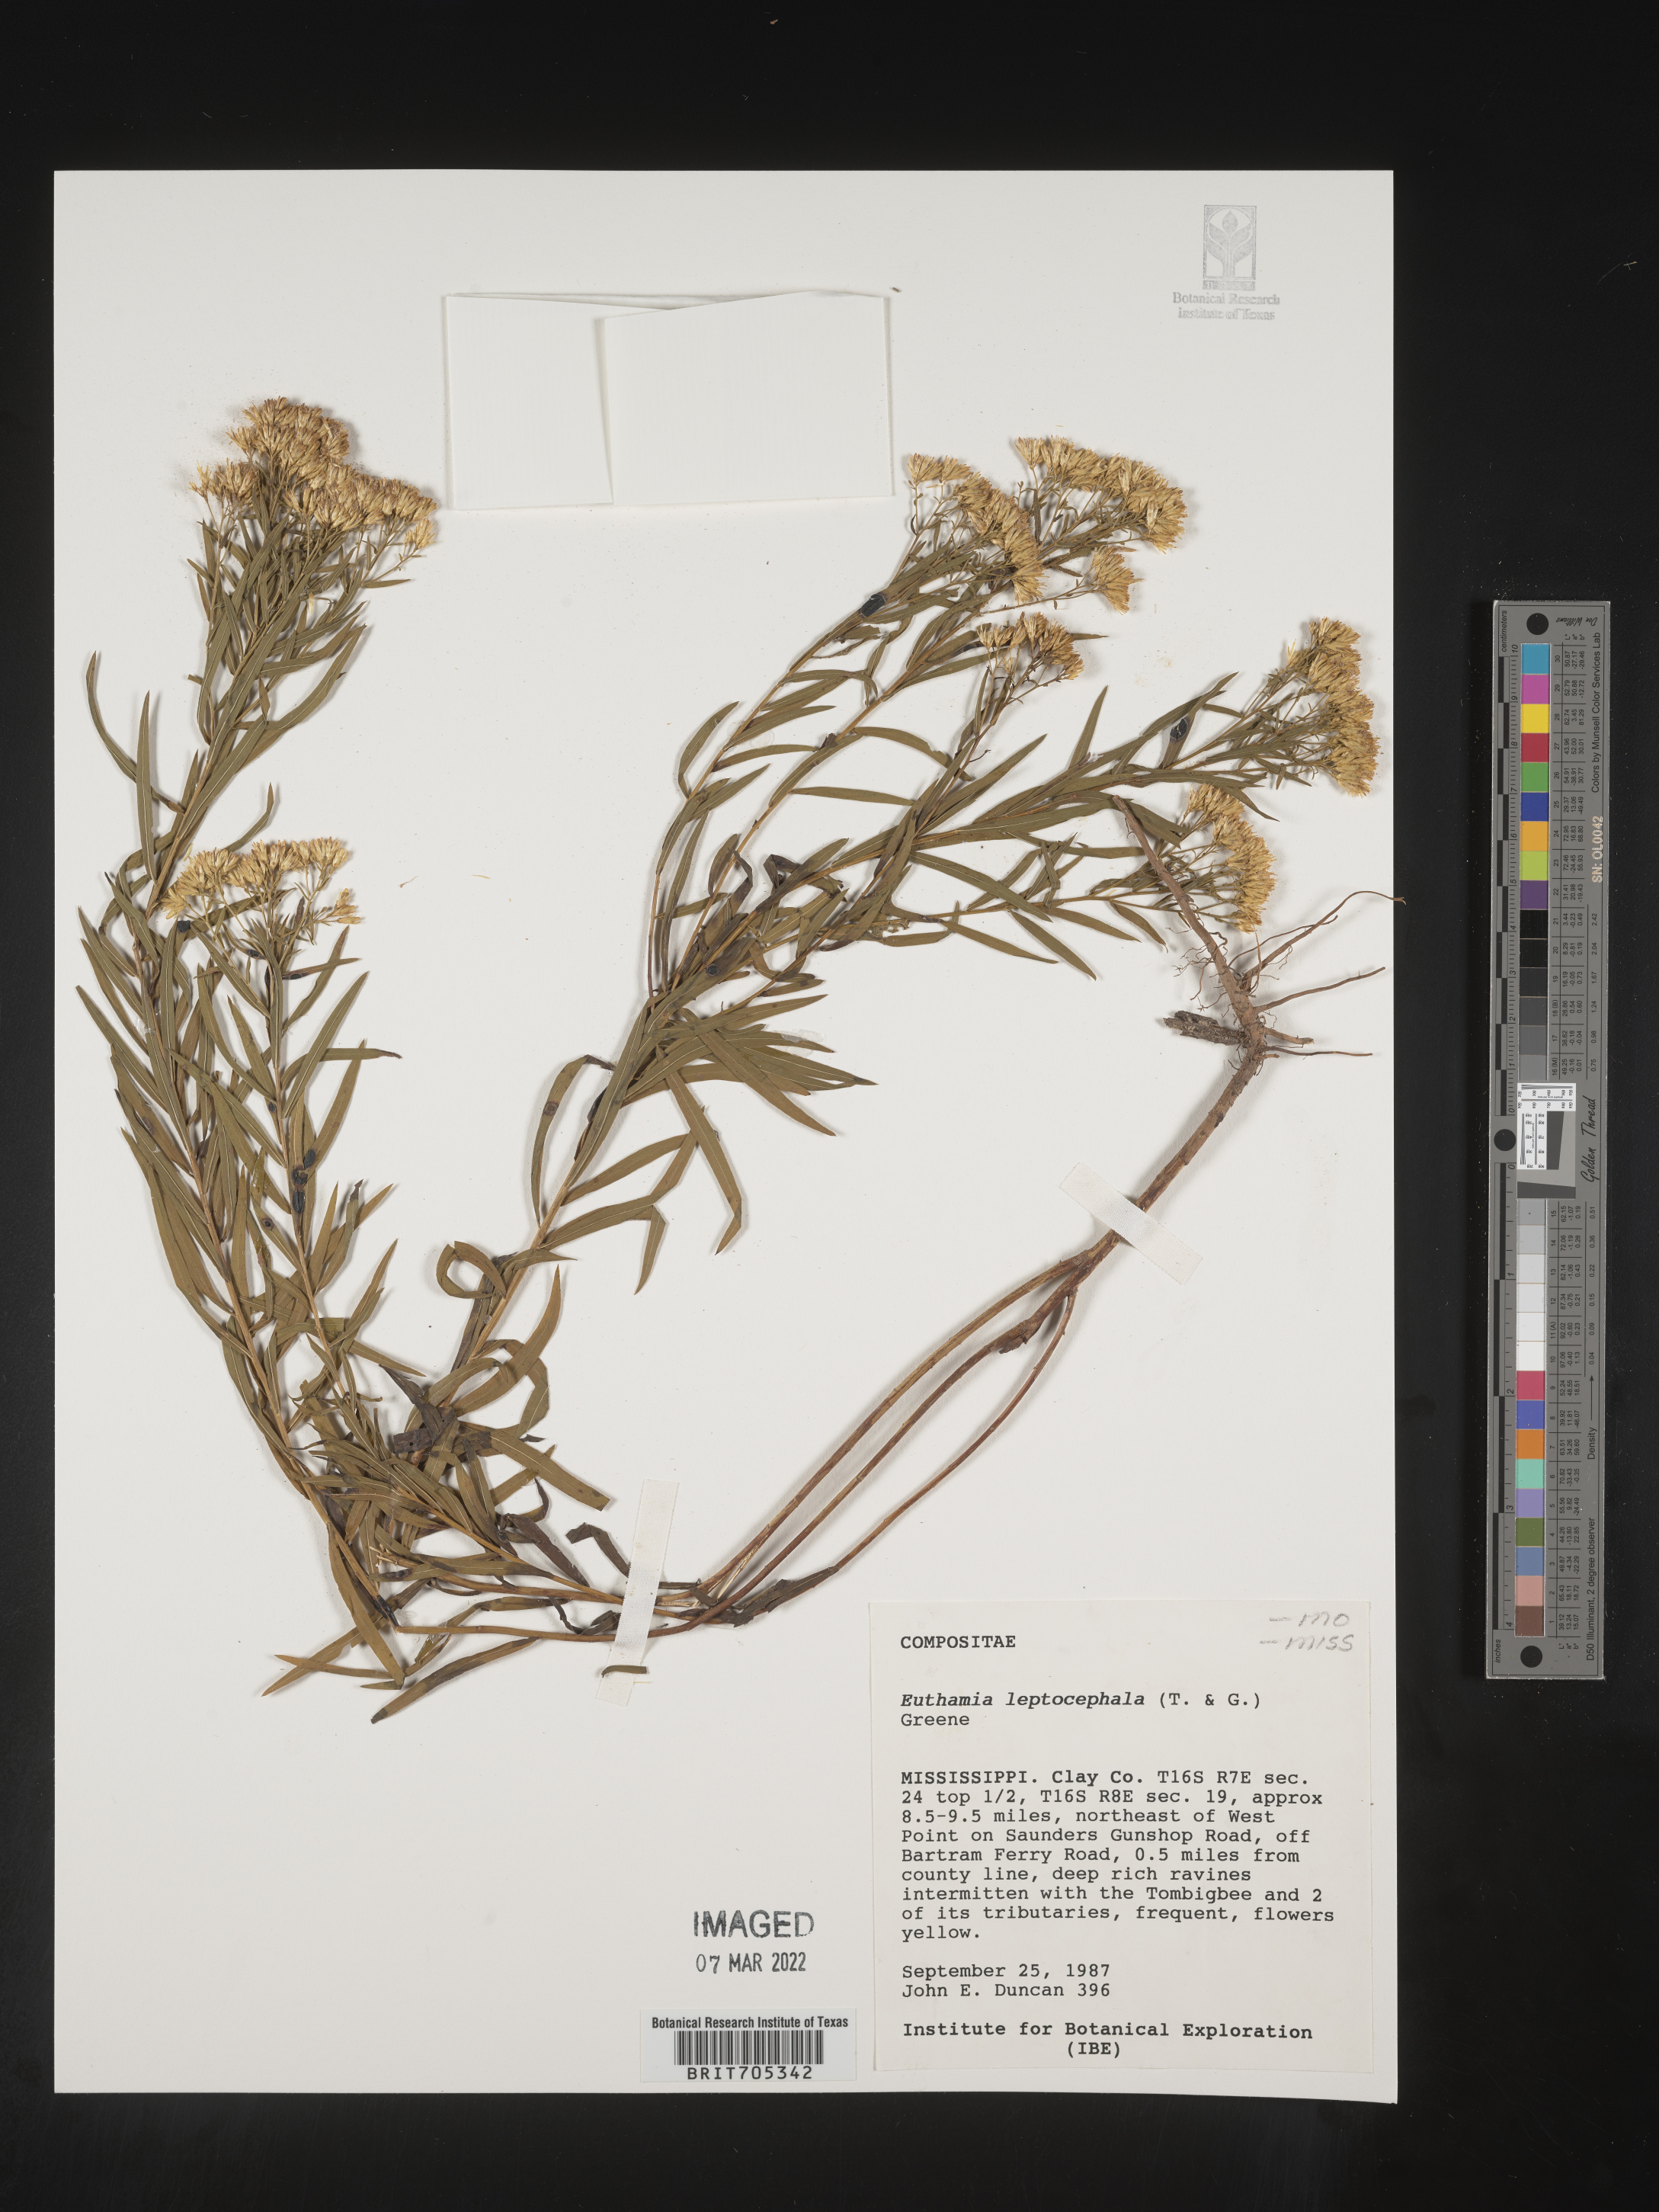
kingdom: Plantae
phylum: Tracheophyta
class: Magnoliopsida
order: Asterales
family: Asteraceae
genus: Euthamia
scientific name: Euthamia leptocephala
